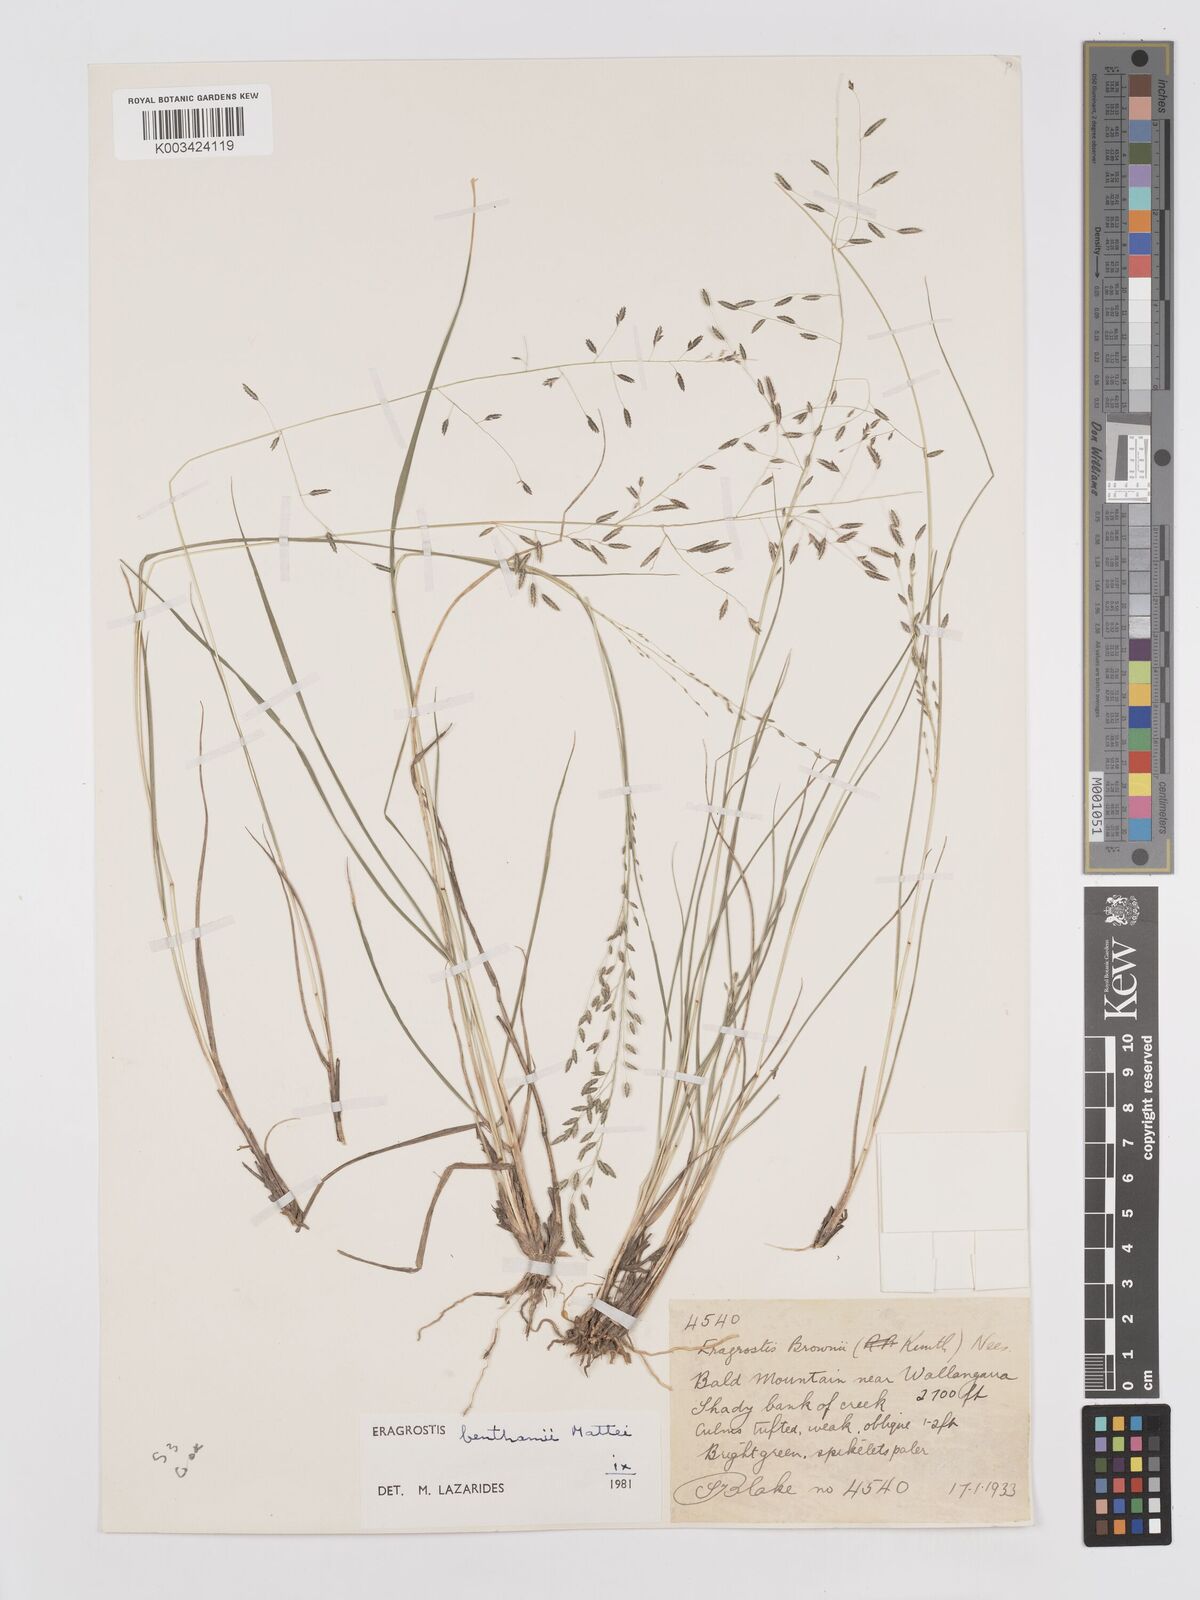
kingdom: Plantae
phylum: Tracheophyta
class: Liliopsida
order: Poales
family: Poaceae
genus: Eragrostis
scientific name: Eragrostis brownii
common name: Lovegrass
